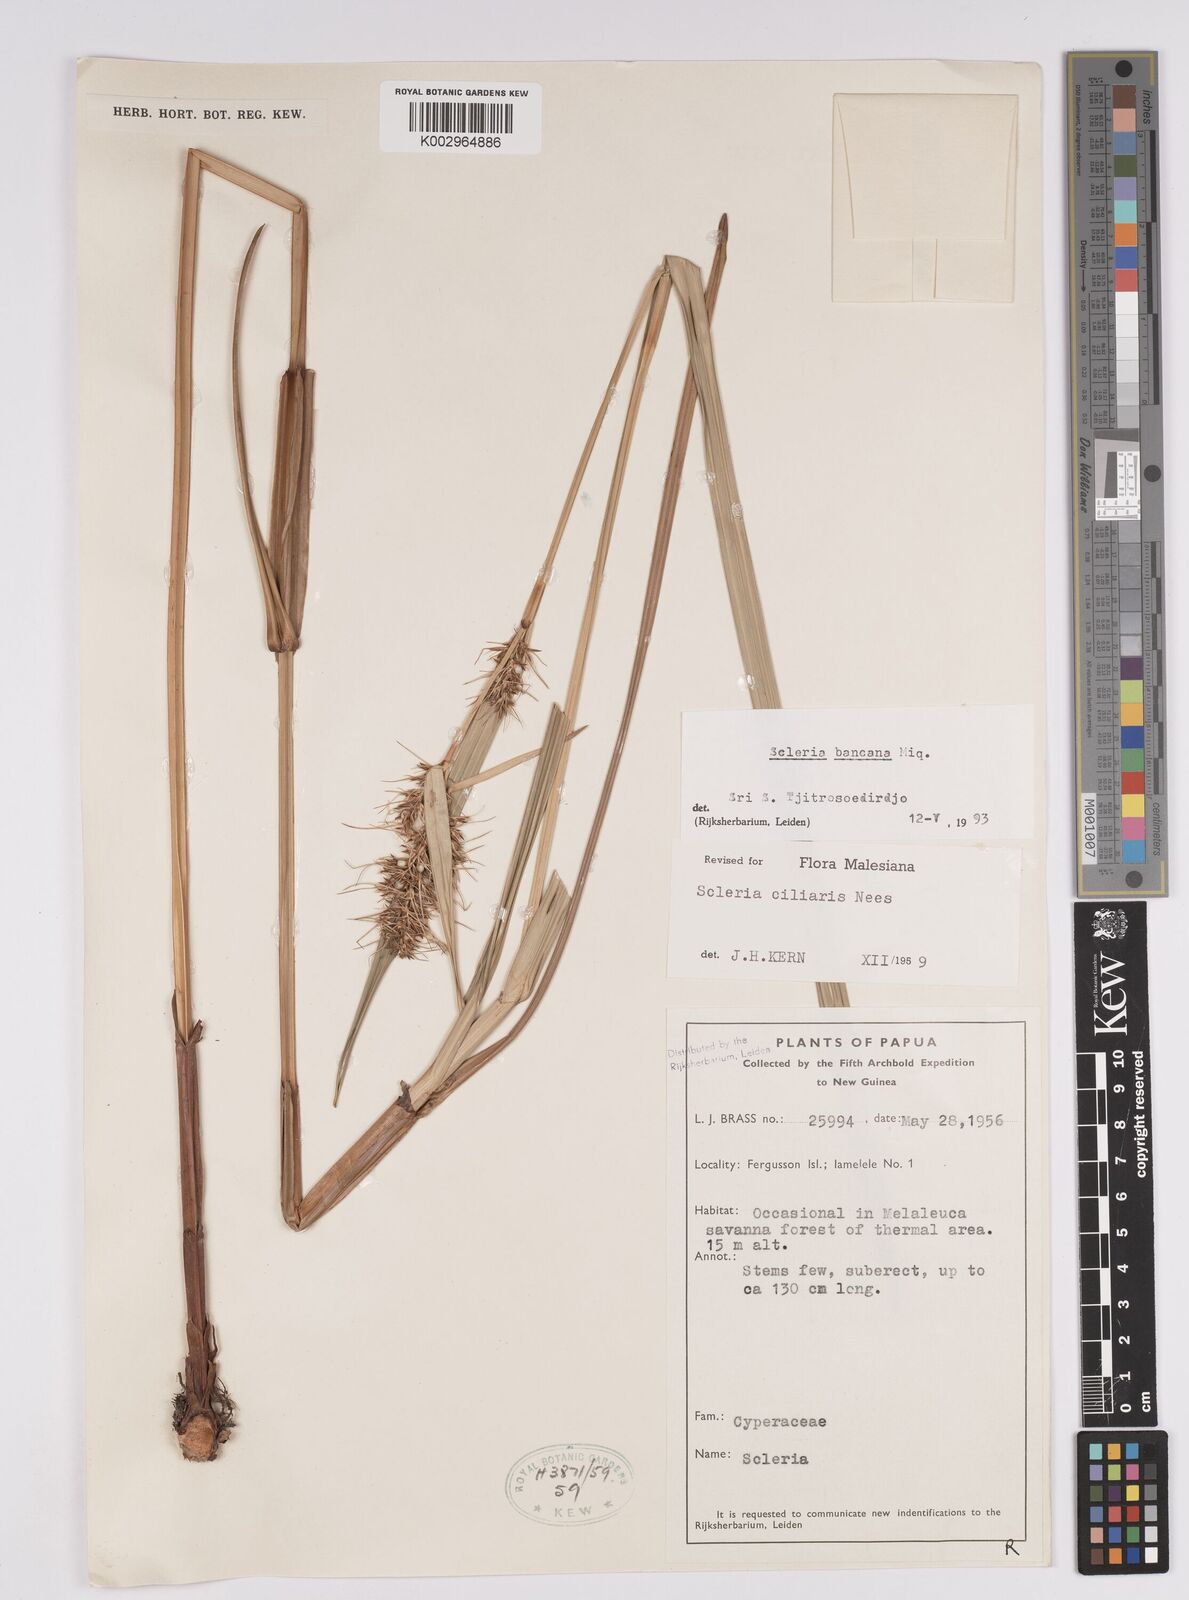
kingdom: Plantae
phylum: Tracheophyta
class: Liliopsida
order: Poales
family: Cyperaceae
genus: Scleria
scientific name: Scleria ciliaris
